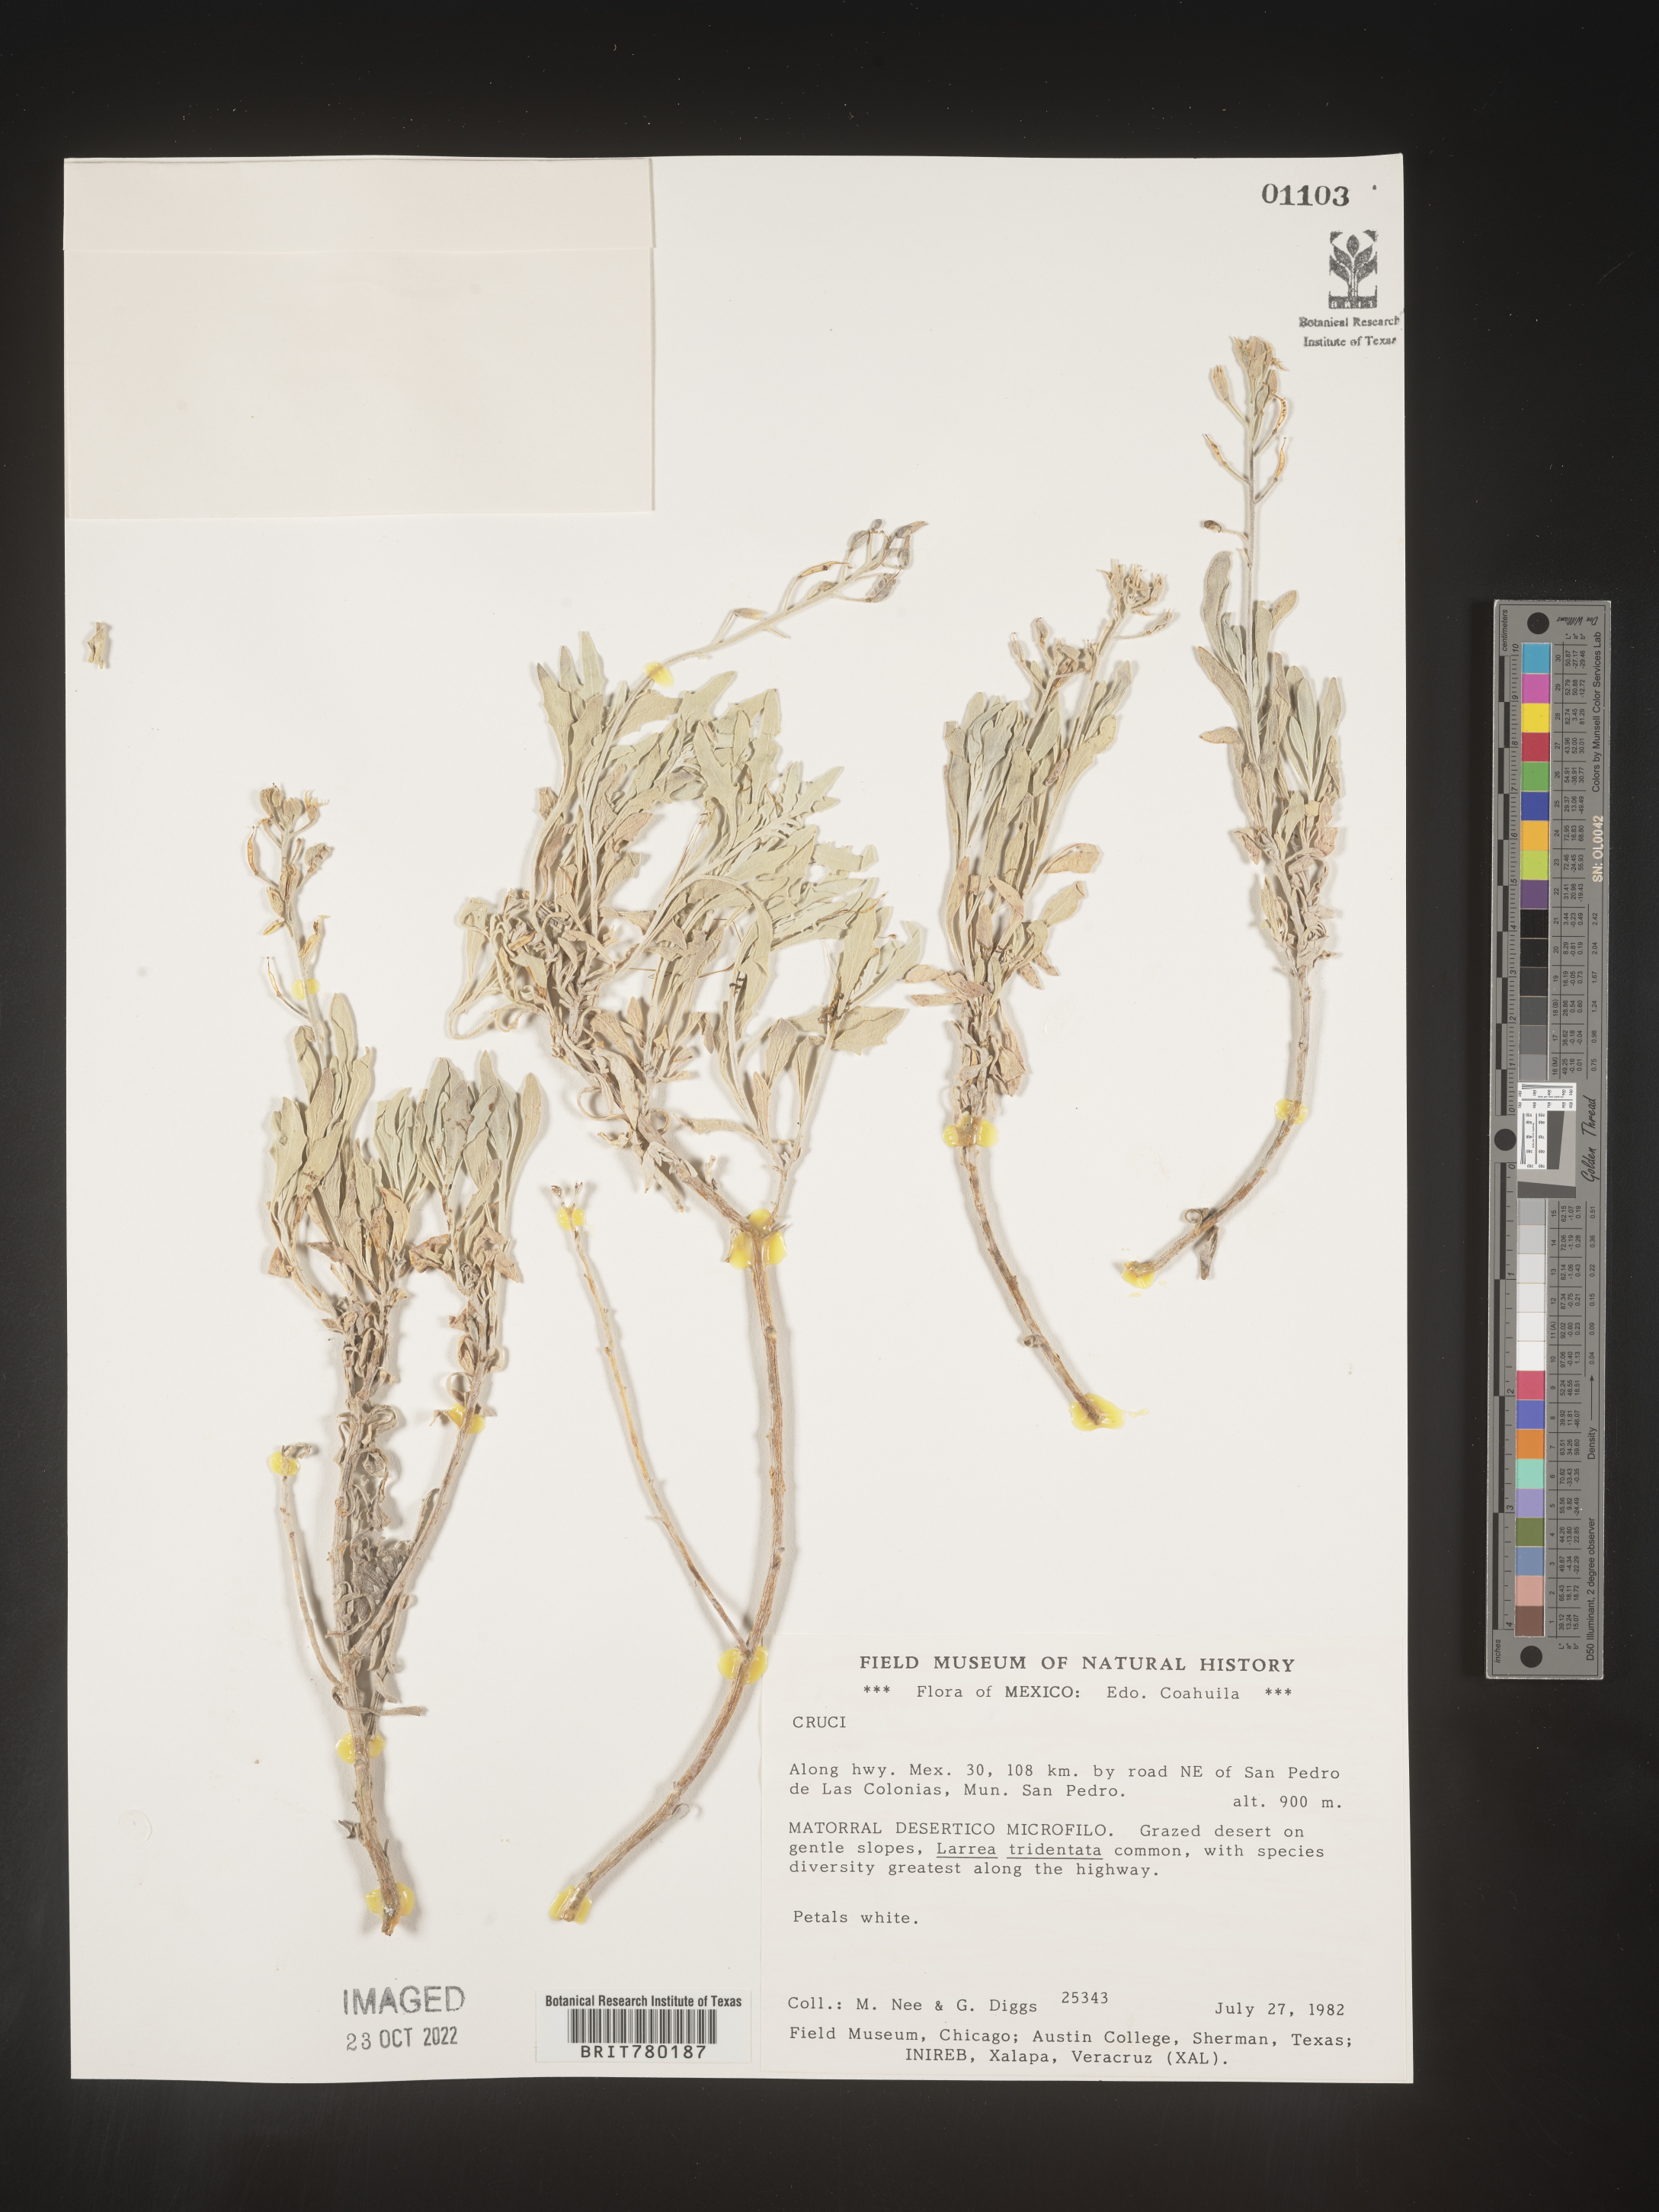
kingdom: Plantae
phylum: Tracheophyta
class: Magnoliopsida
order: Brassicales
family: Brassicaceae
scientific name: Brassicaceae
